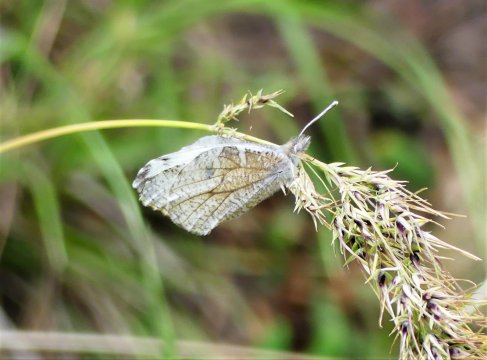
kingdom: Animalia
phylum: Arthropoda
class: Insecta
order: Lepidoptera
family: Pieridae
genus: Anthocharis
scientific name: Anthocharis lanceolata
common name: Gray Marble
